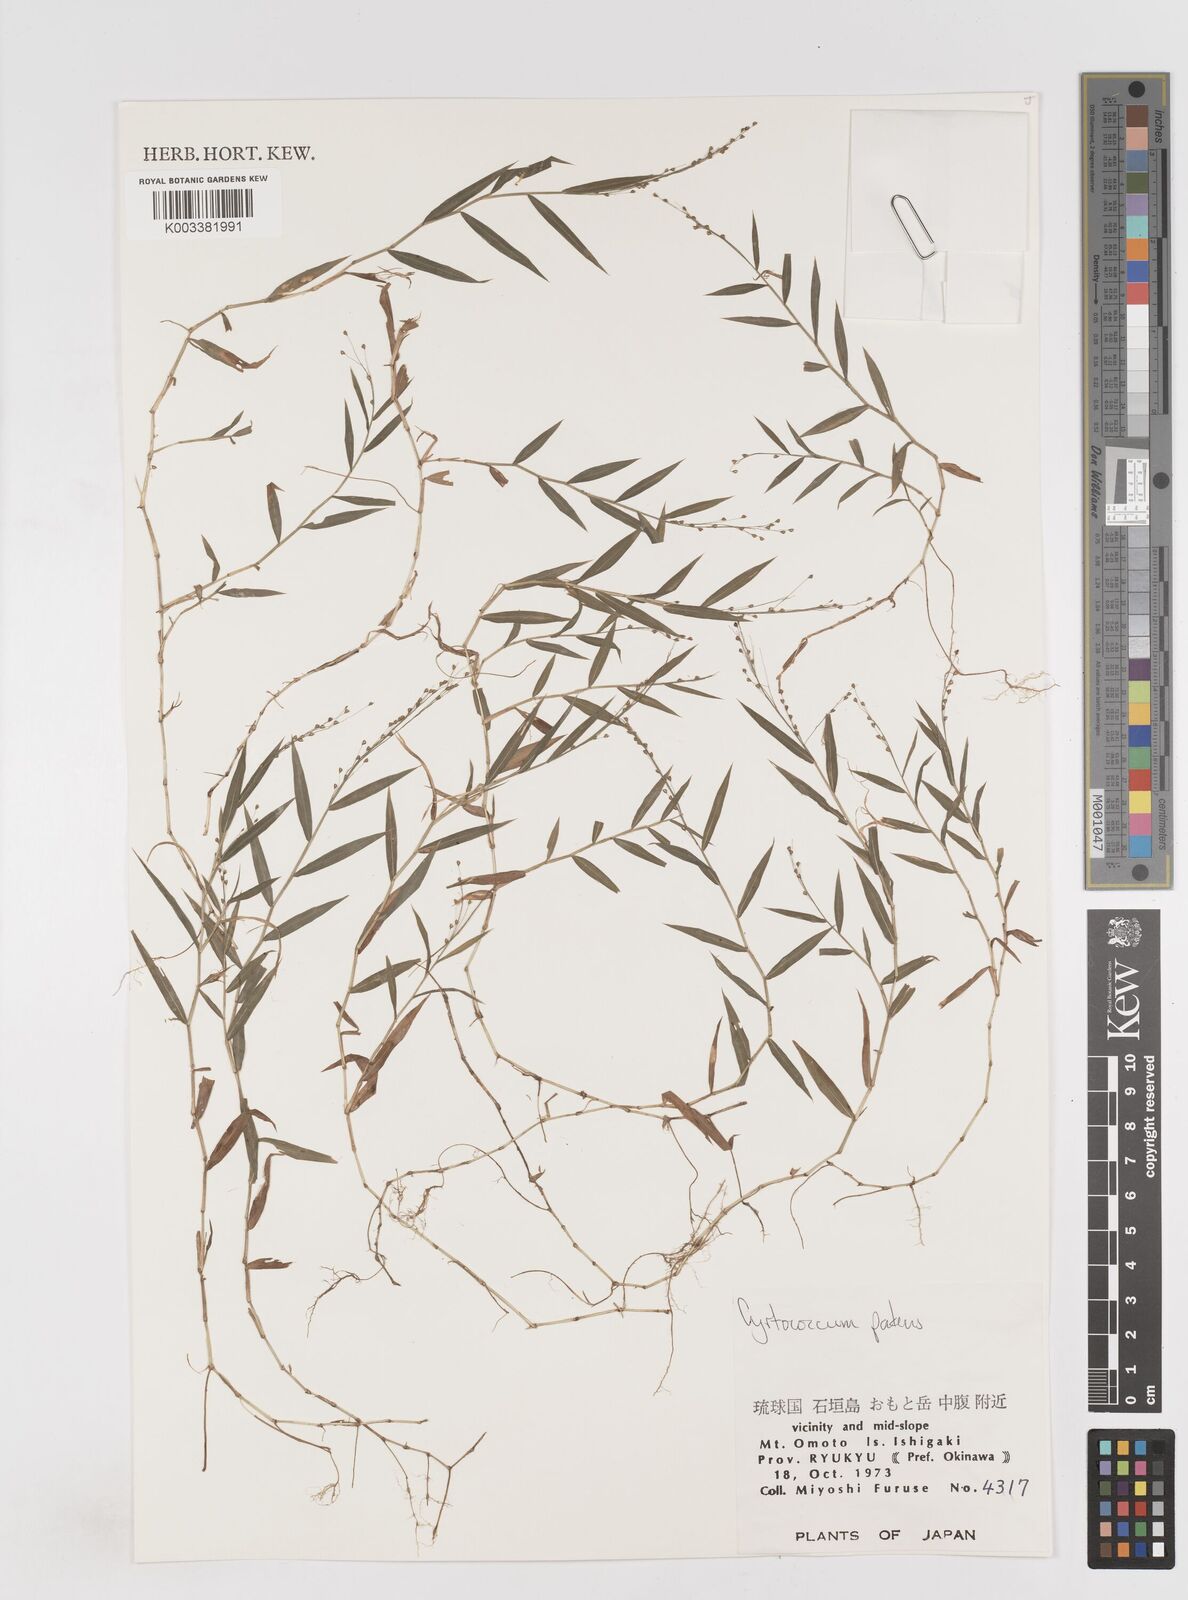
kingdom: Plantae
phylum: Tracheophyta
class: Liliopsida
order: Poales
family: Poaceae
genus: Cyrtococcum
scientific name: Cyrtococcum patens
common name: Broad-leaved bowgrass
